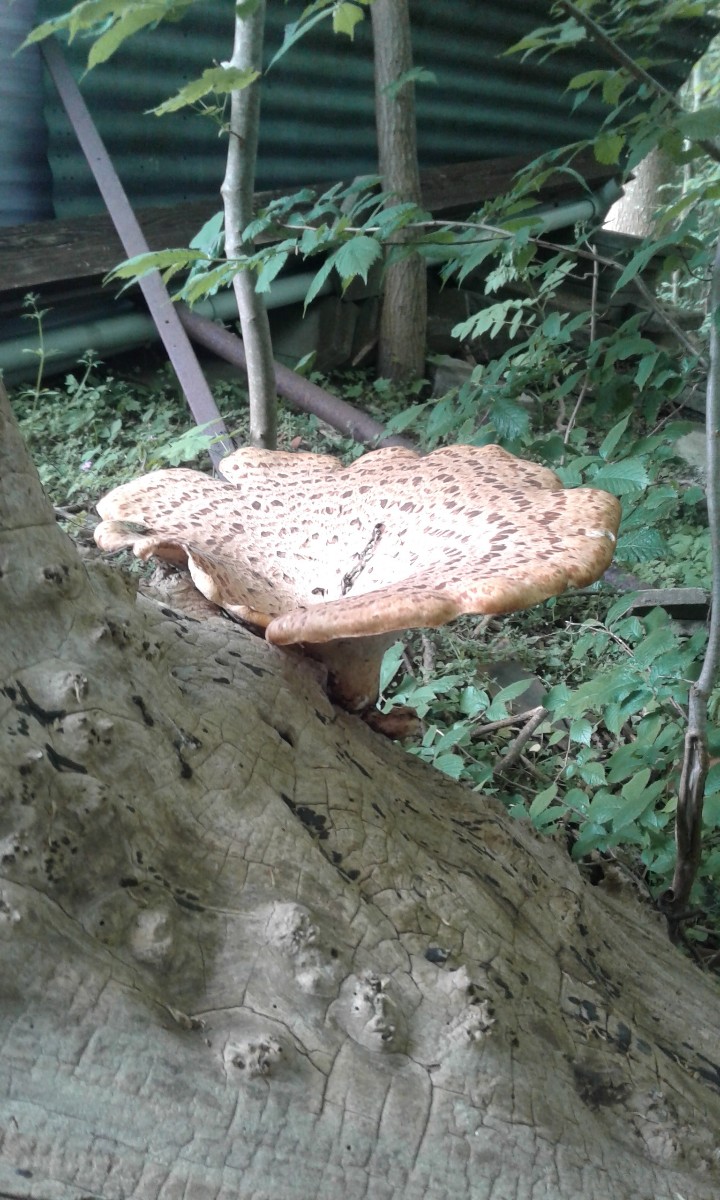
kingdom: Fungi
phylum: Basidiomycota
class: Agaricomycetes
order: Polyporales
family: Polyporaceae
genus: Cerioporus
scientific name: Cerioporus squamosus
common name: skællet stilkporesvamp
